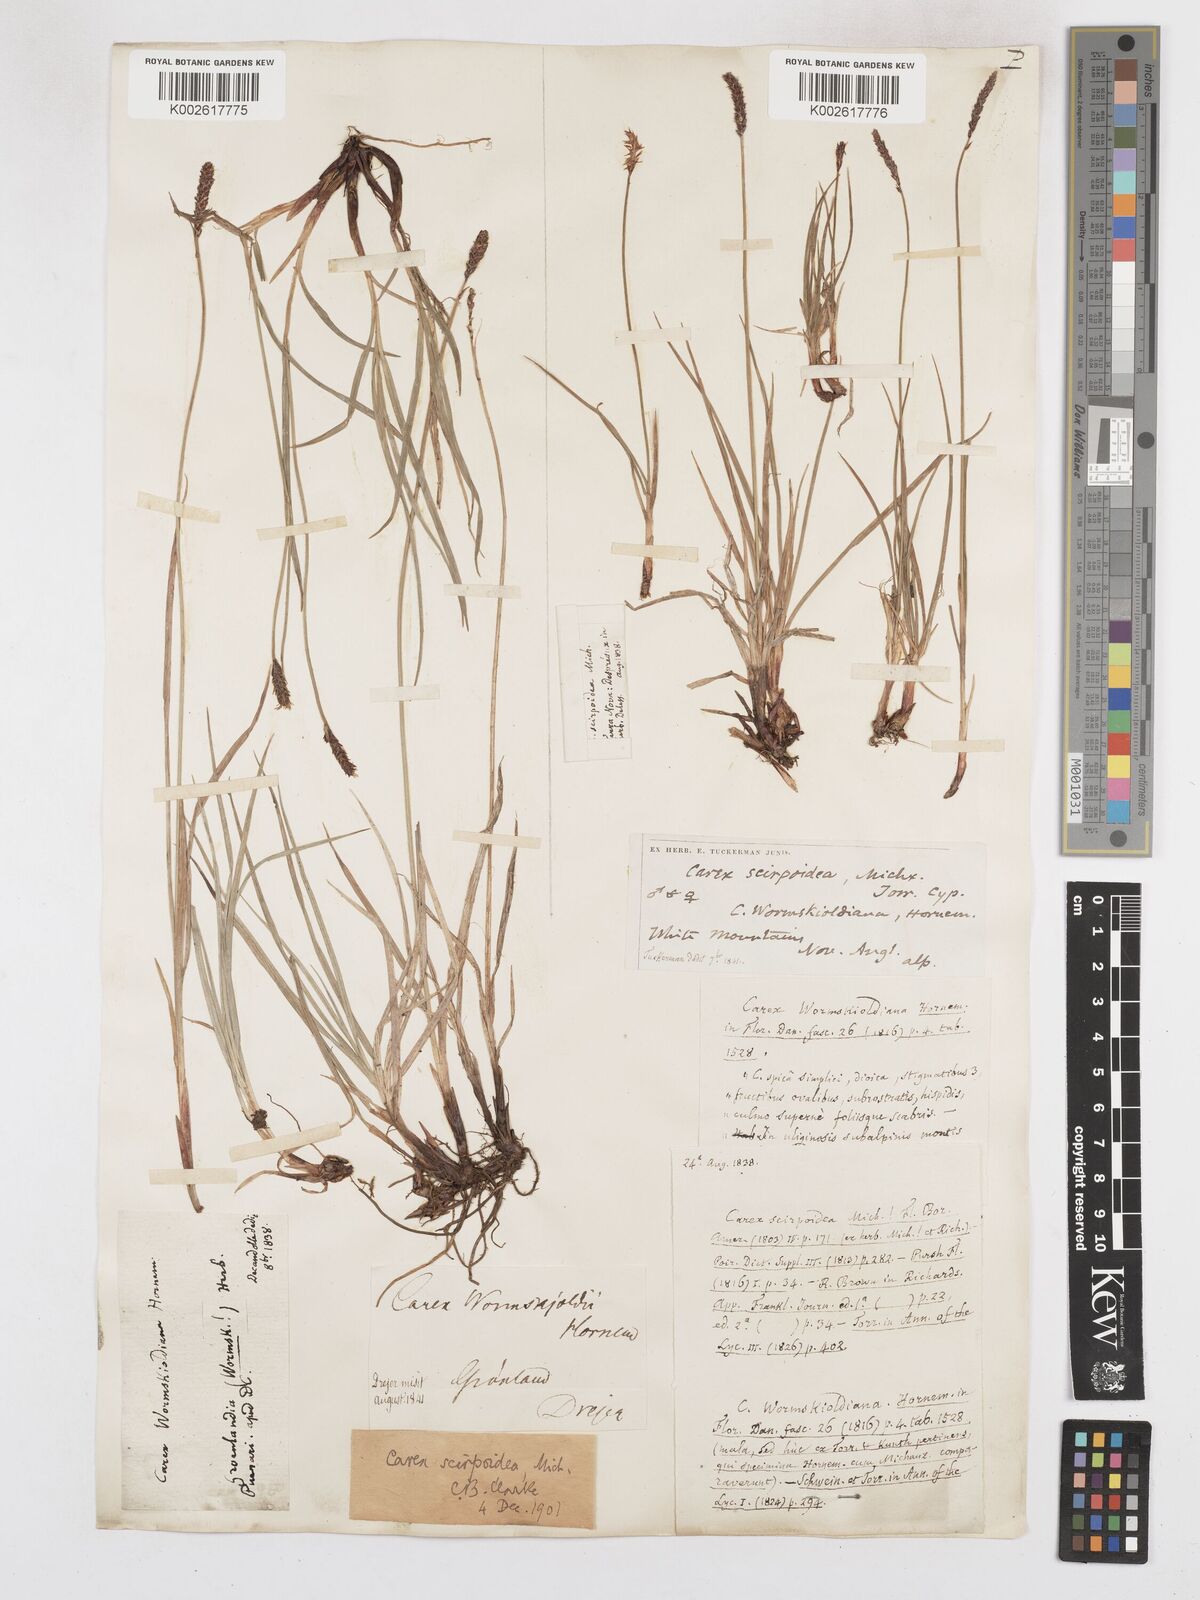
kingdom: Plantae
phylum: Tracheophyta
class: Liliopsida
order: Poales
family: Cyperaceae
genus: Carex
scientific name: Carex scirpoidea
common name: Canada single-spike sedge
